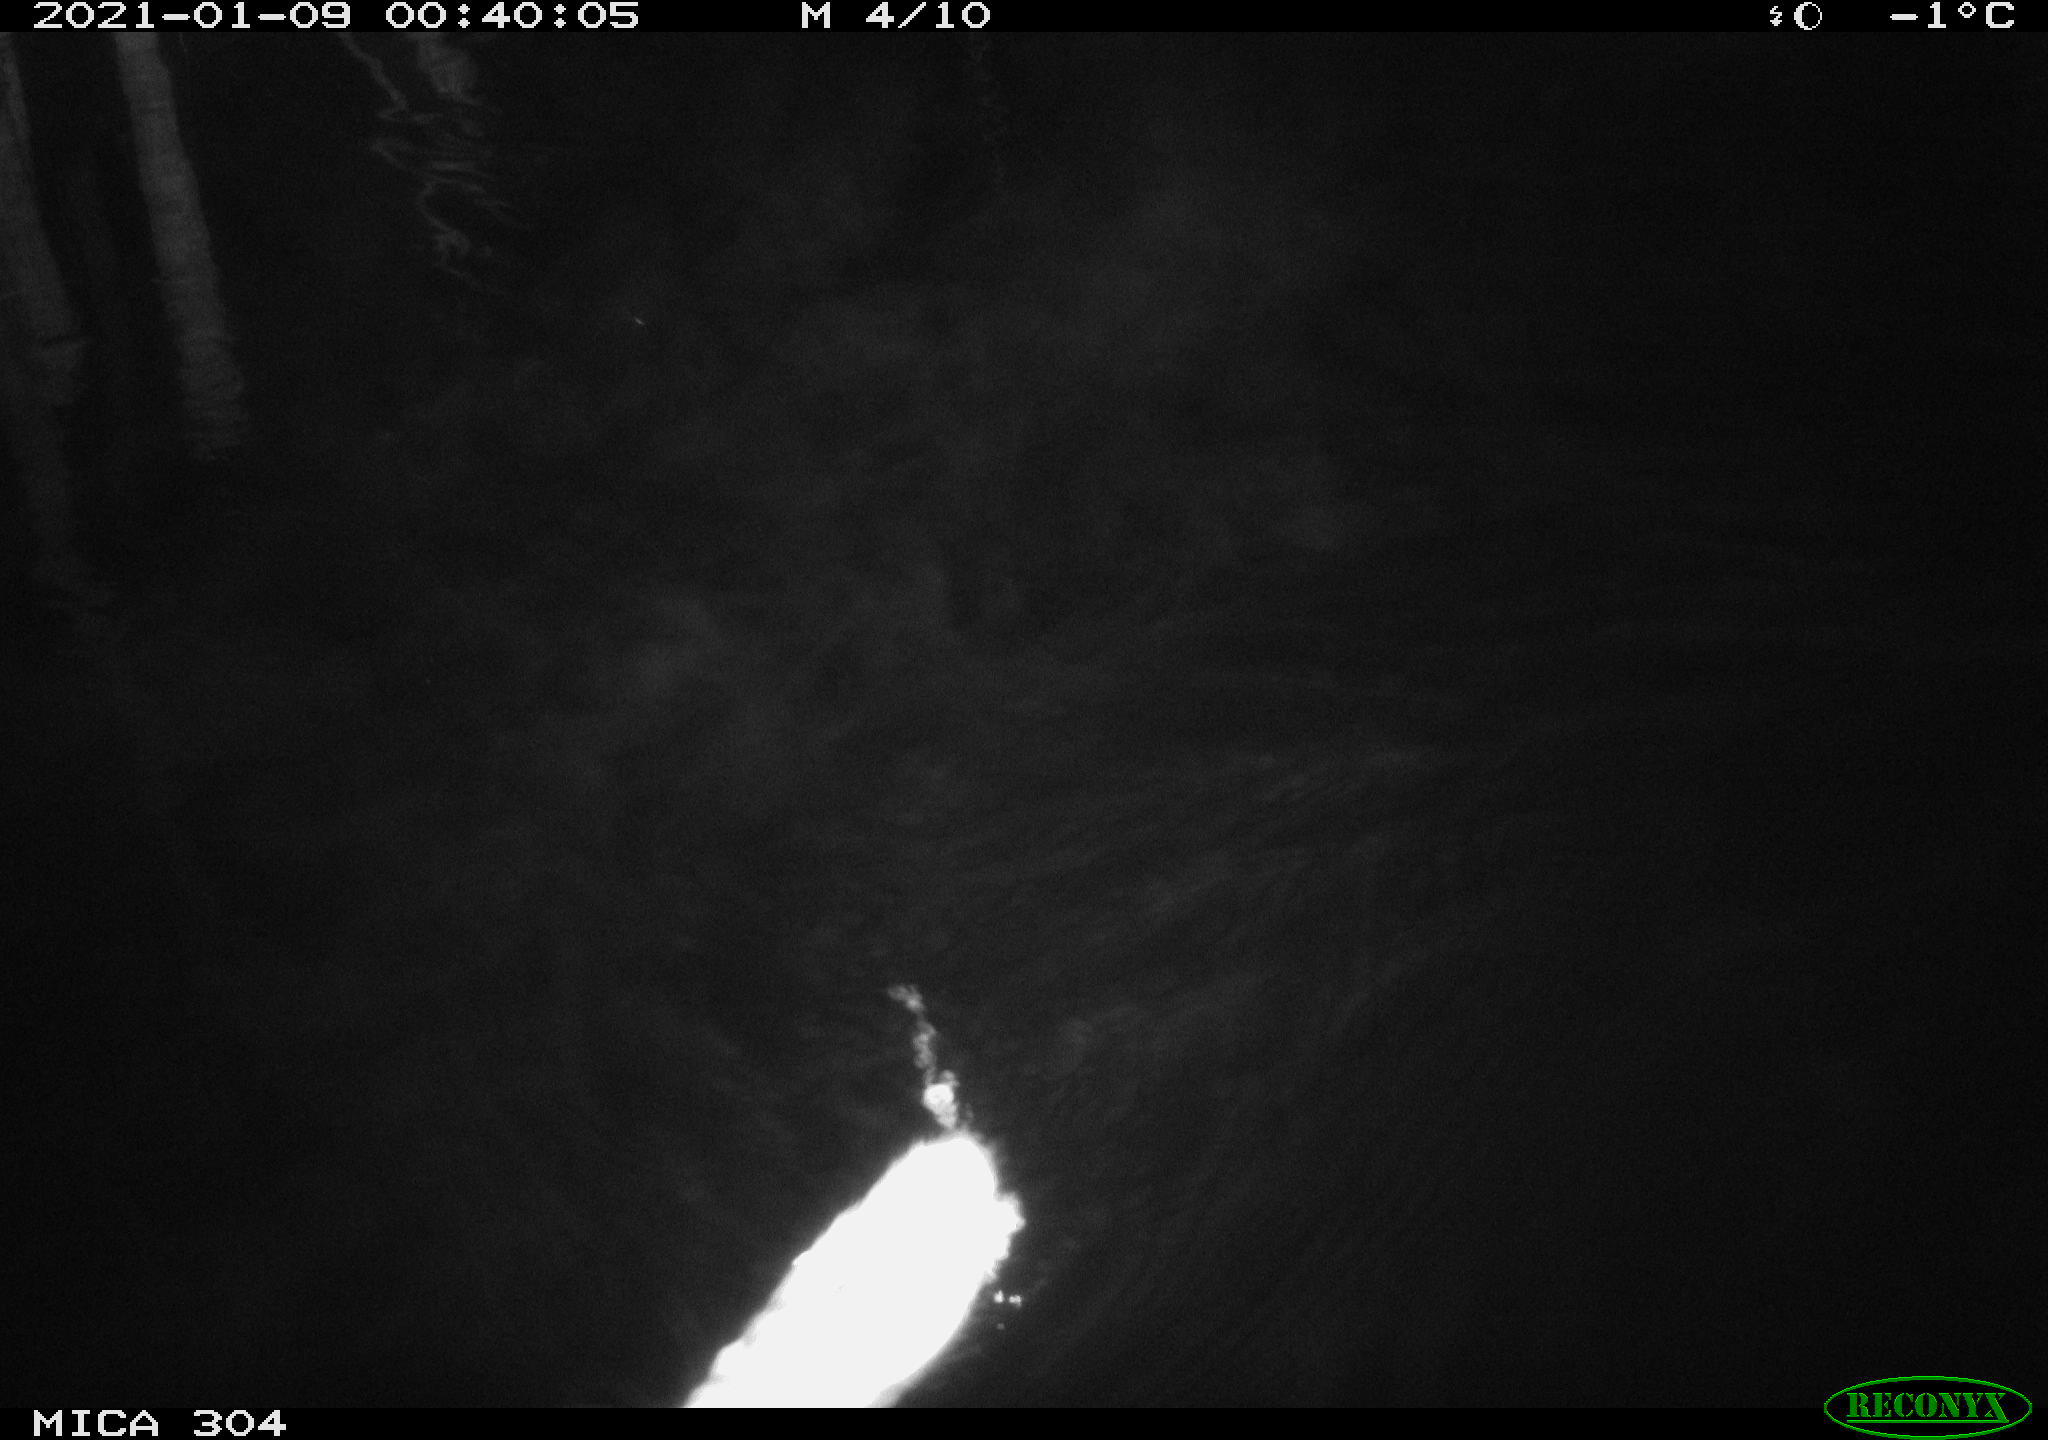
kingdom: Animalia
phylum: Chordata
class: Mammalia
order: Rodentia
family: Muridae
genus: Rattus
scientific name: Rattus norvegicus
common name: Brown rat
